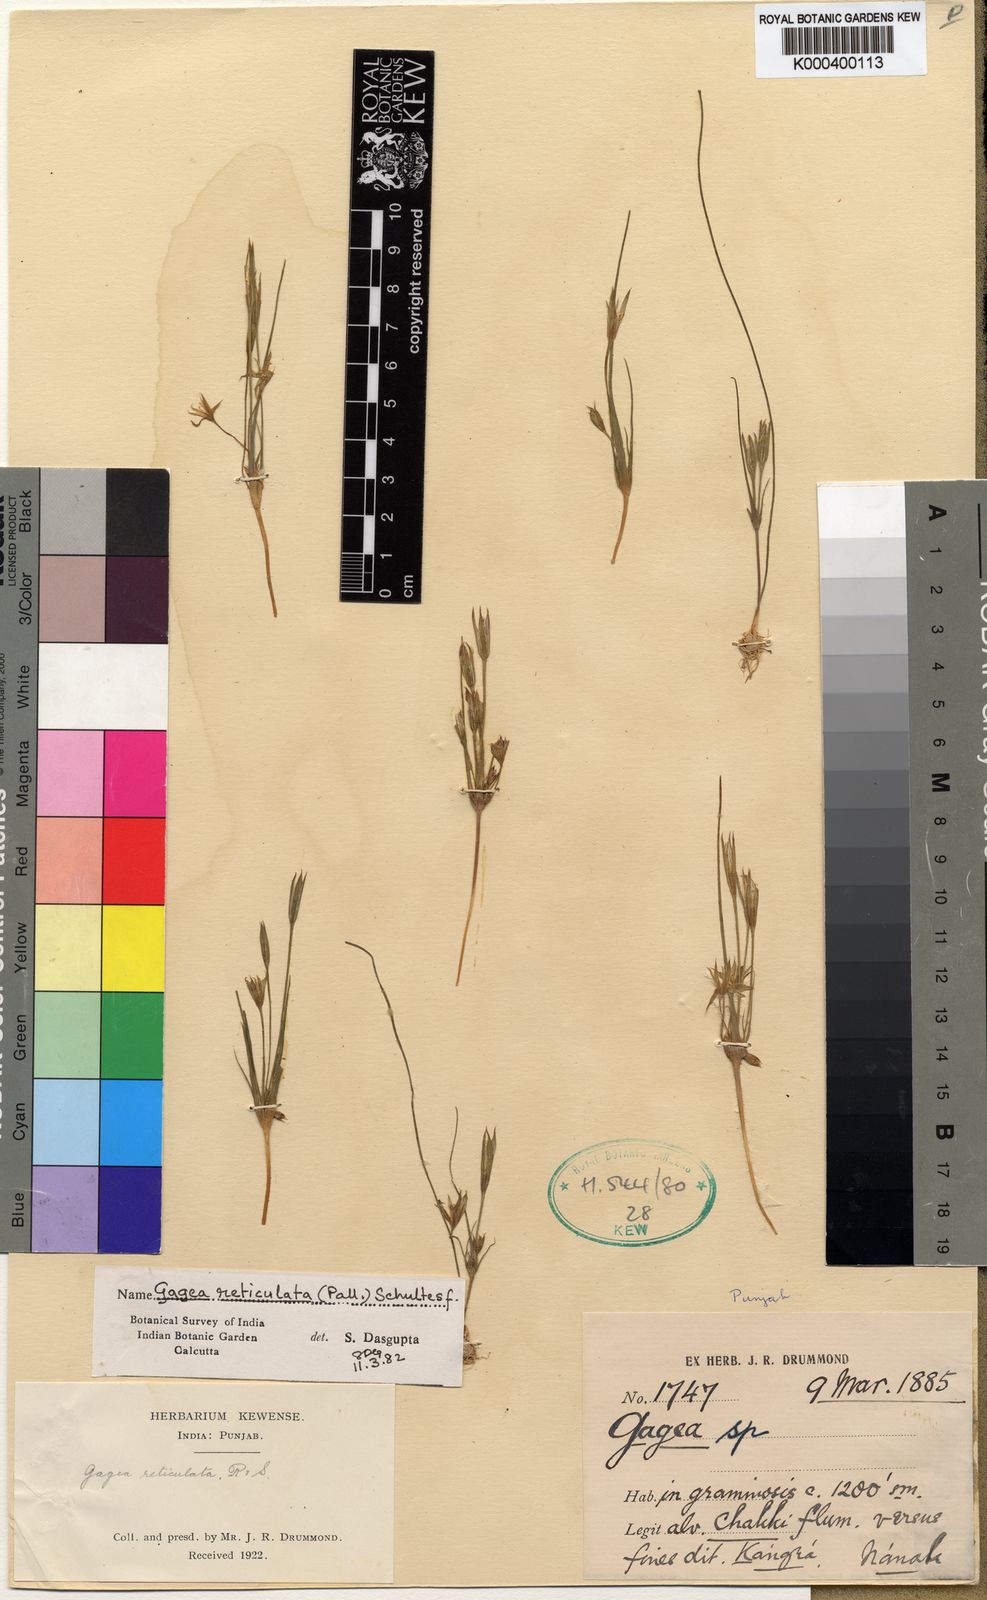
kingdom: Plantae
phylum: Tracheophyta
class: Liliopsida
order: Liliales
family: Liliaceae
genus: Gagea
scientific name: Gagea reticulata
